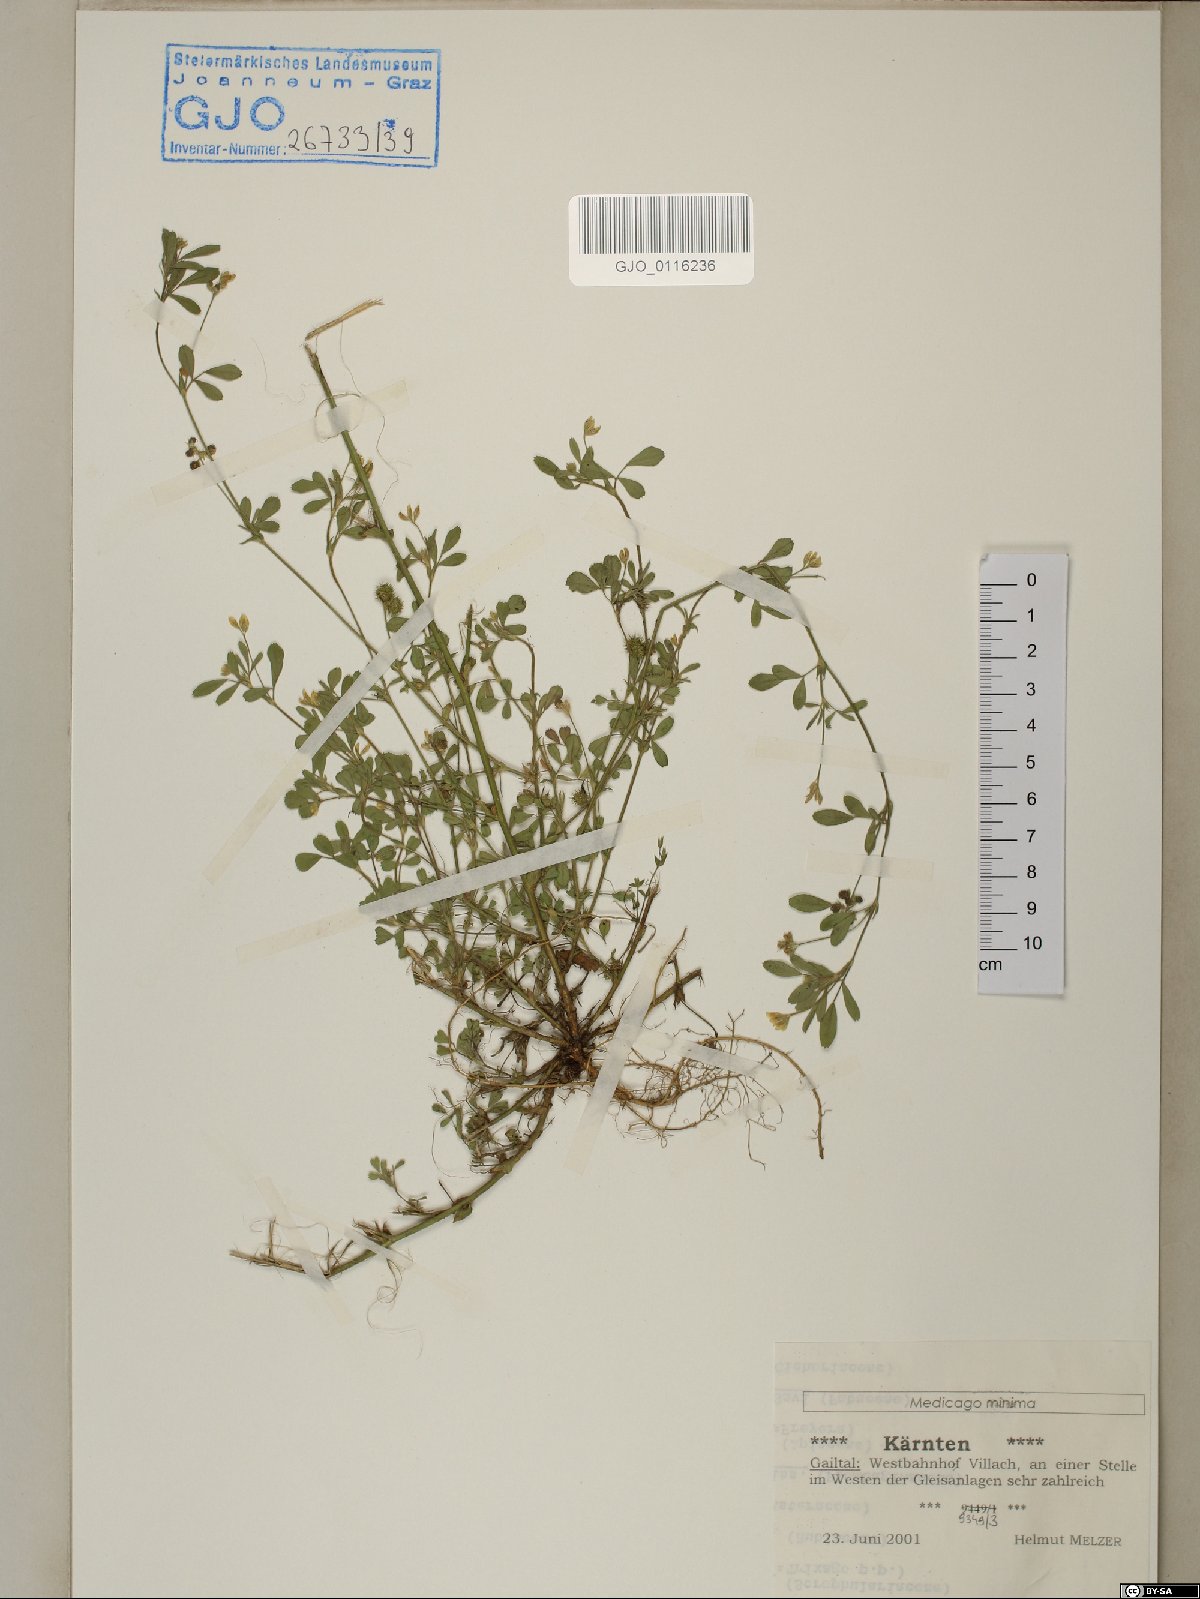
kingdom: Plantae
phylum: Tracheophyta
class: Magnoliopsida
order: Fabales
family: Fabaceae
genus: Medicago
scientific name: Medicago minima
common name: Little bur-clover
